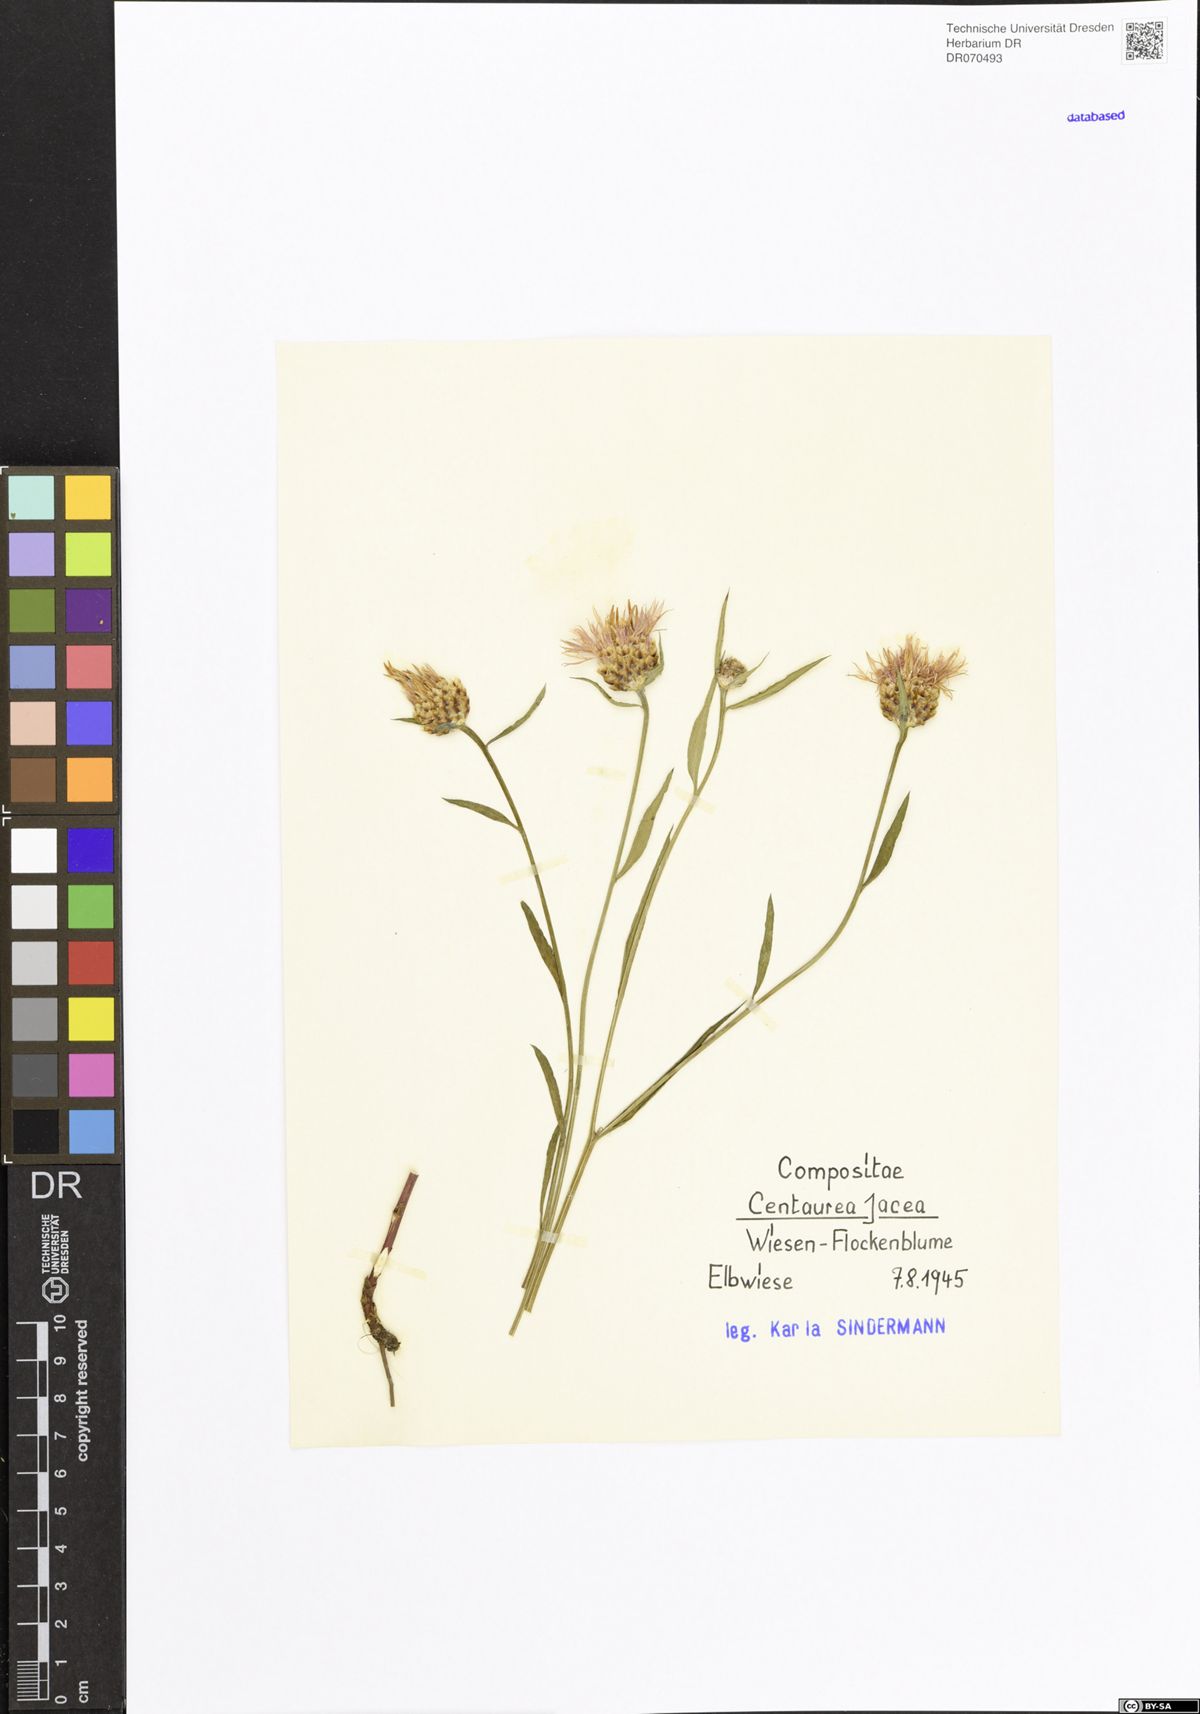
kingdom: Plantae
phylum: Tracheophyta
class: Magnoliopsida
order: Asterales
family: Asteraceae
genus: Centaurea
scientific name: Centaurea jacea
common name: Brown knapweed
